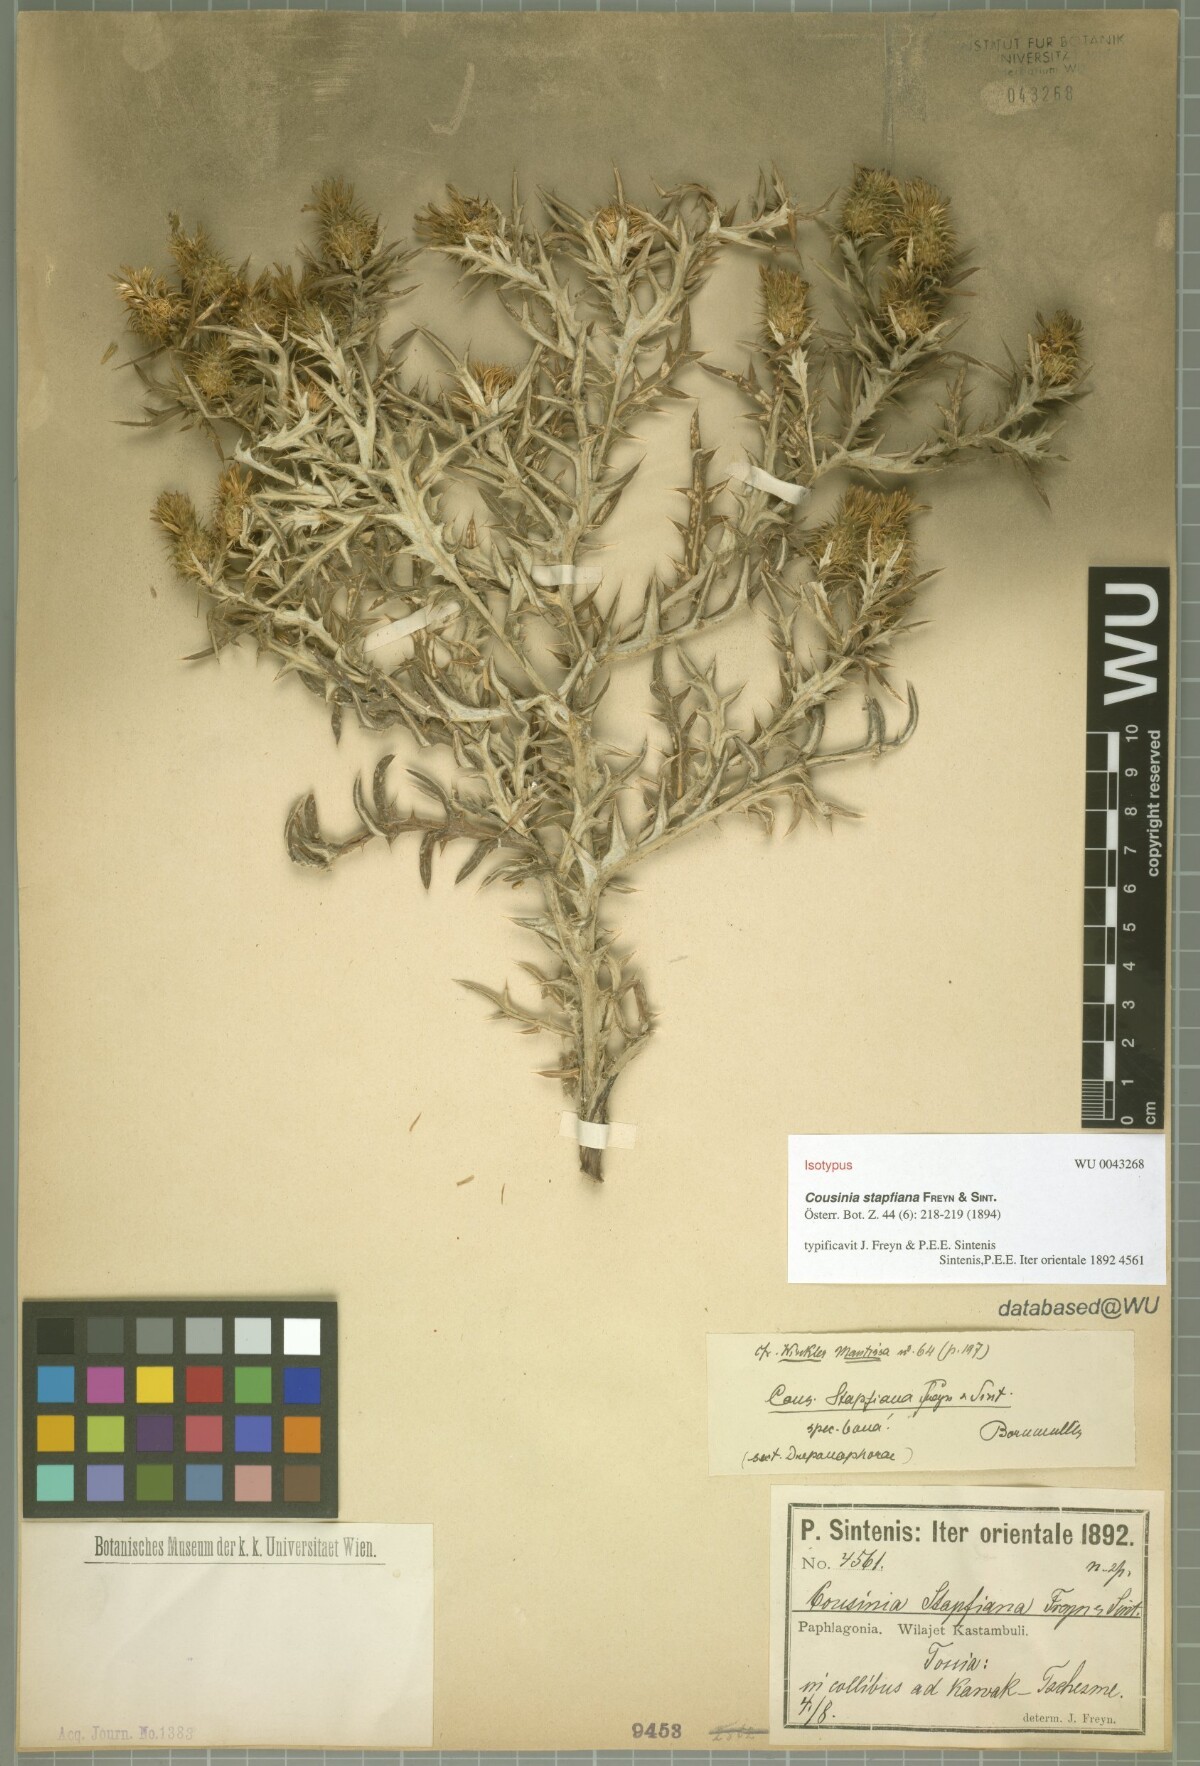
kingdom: Plantae
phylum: Tracheophyta
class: Magnoliopsida
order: Asterales
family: Asteraceae
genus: Cousinia
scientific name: Cousinia stapfiana
